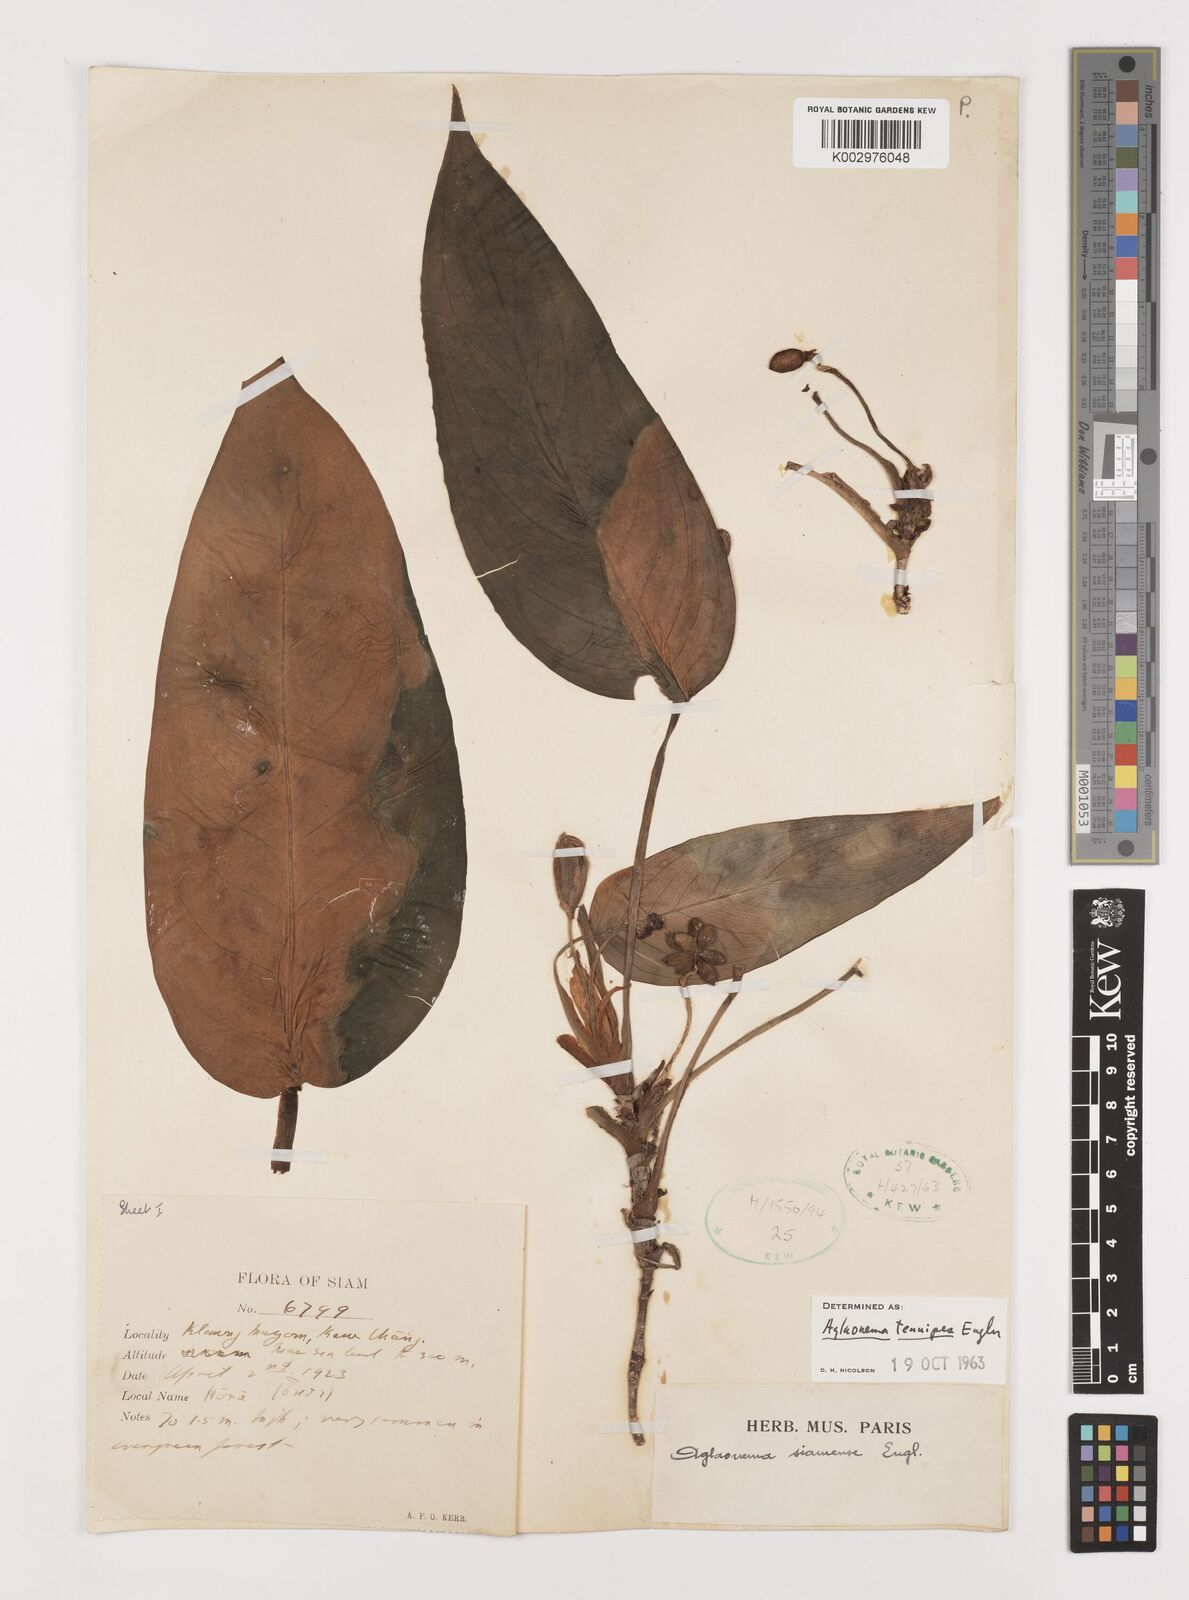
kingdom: Plantae
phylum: Tracheophyta
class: Liliopsida
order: Alismatales
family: Araceae
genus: Aglaonema
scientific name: Aglaonema simplex
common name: Malayan-sword
